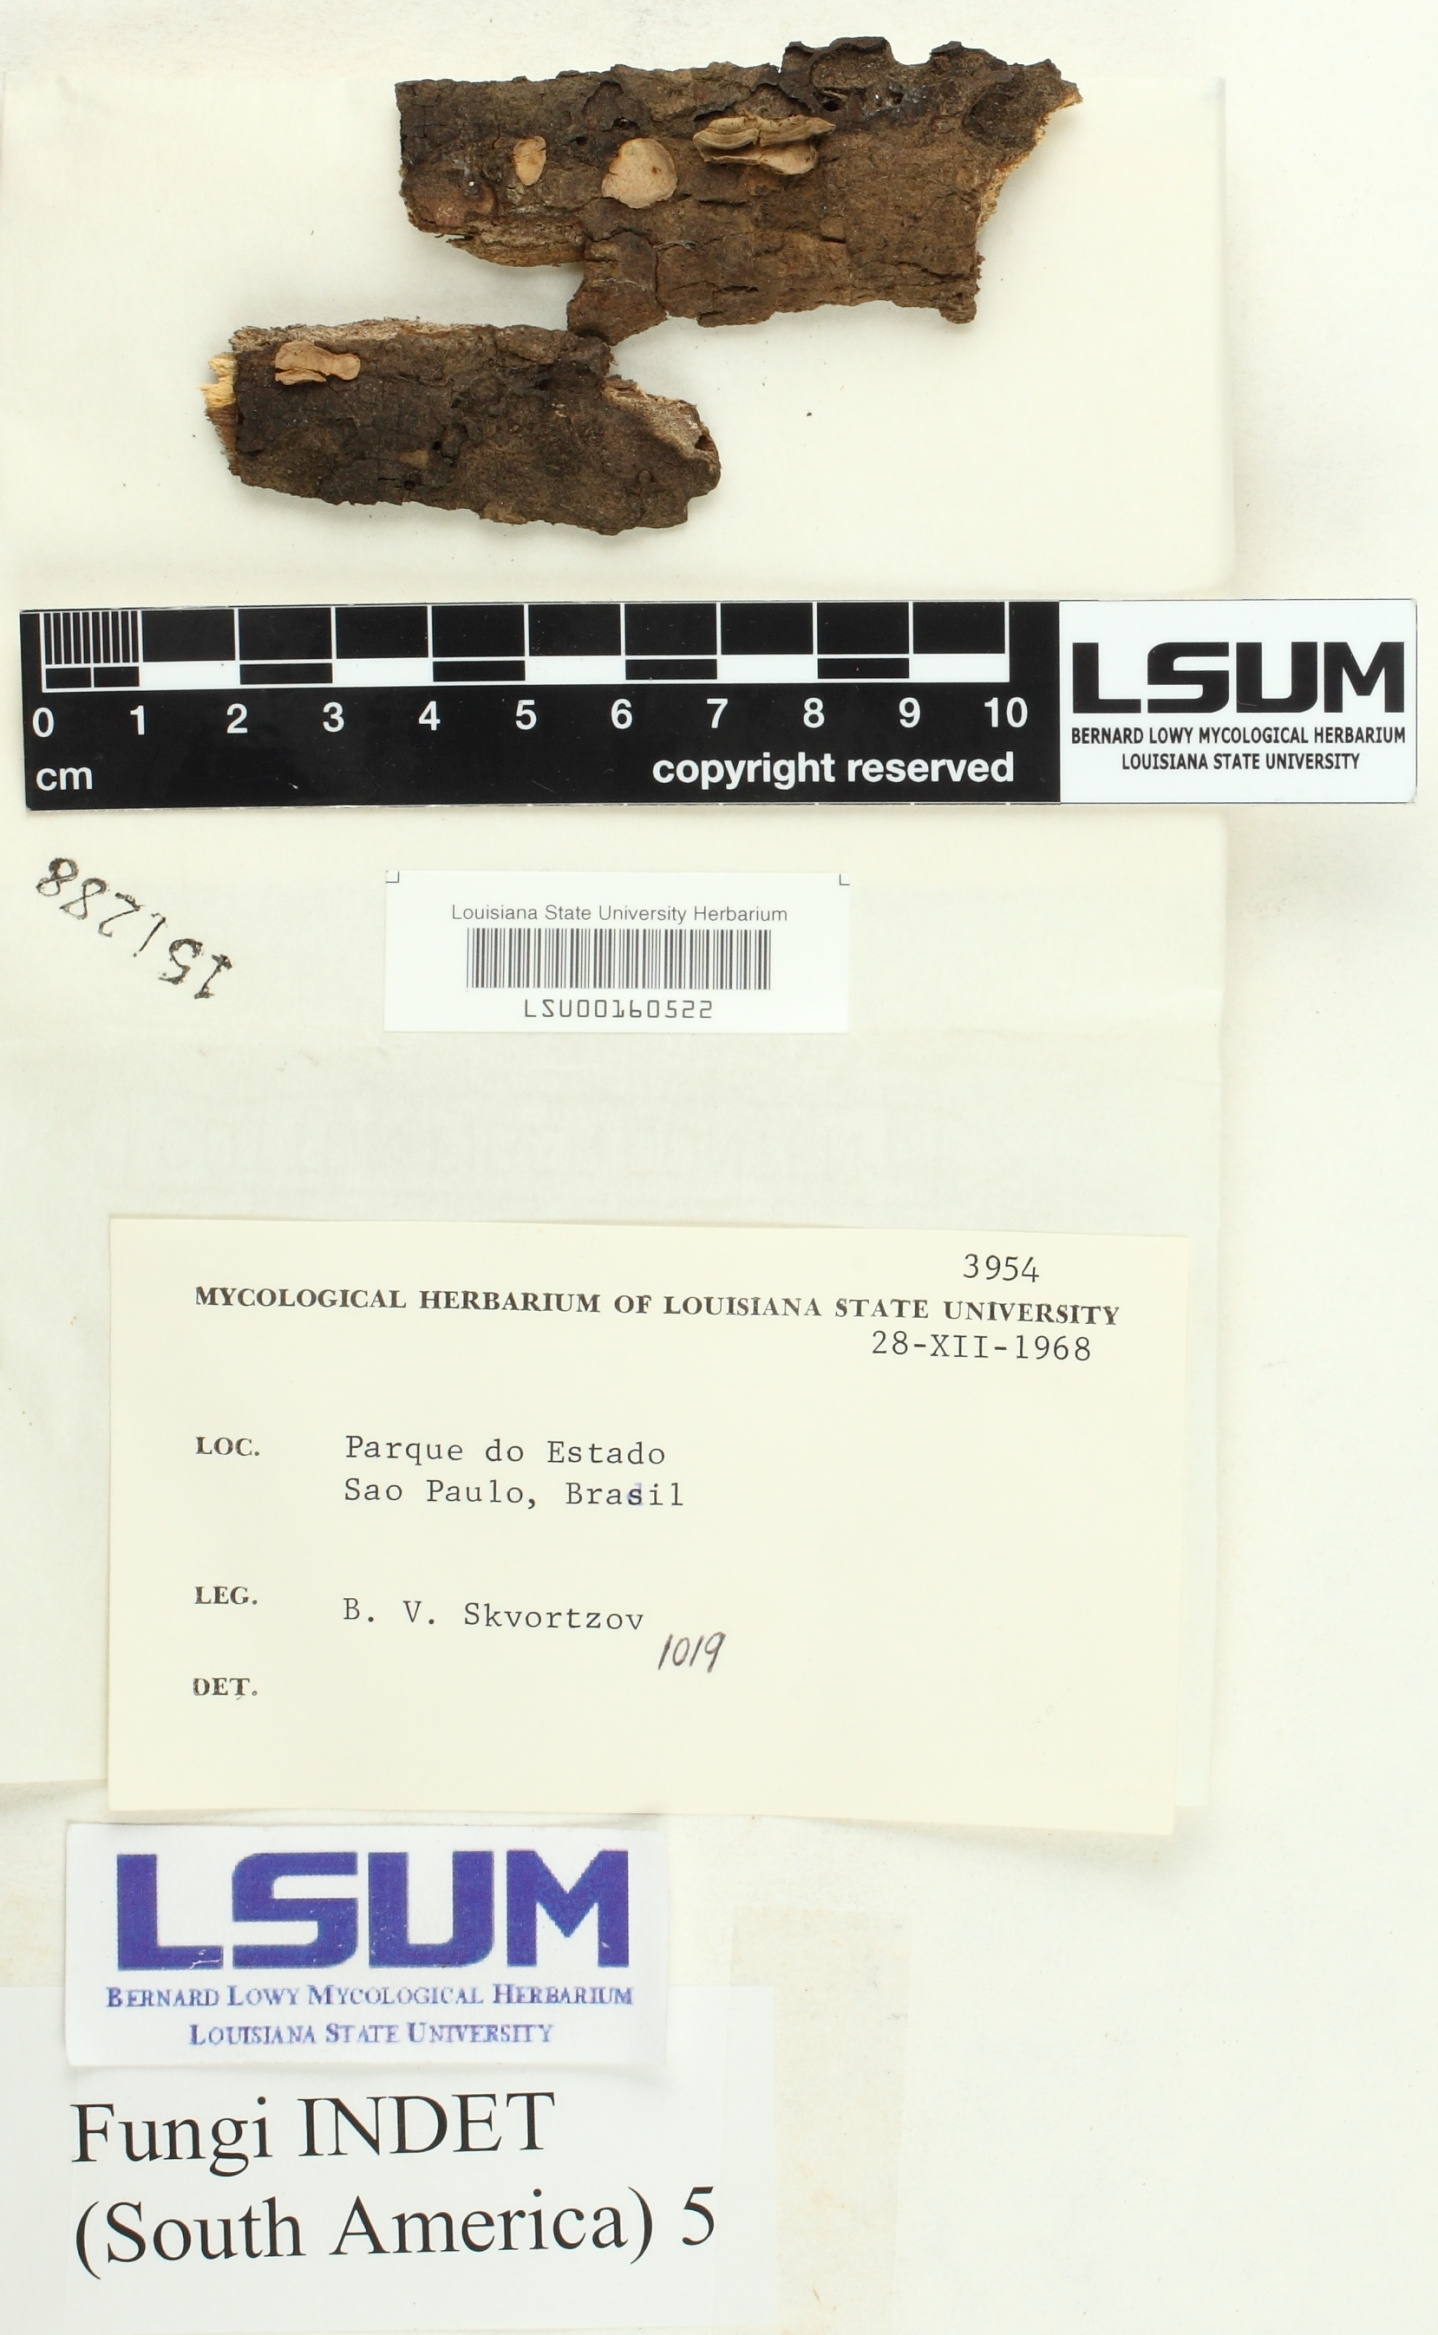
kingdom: Fungi
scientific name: Fungi
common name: Fungi
